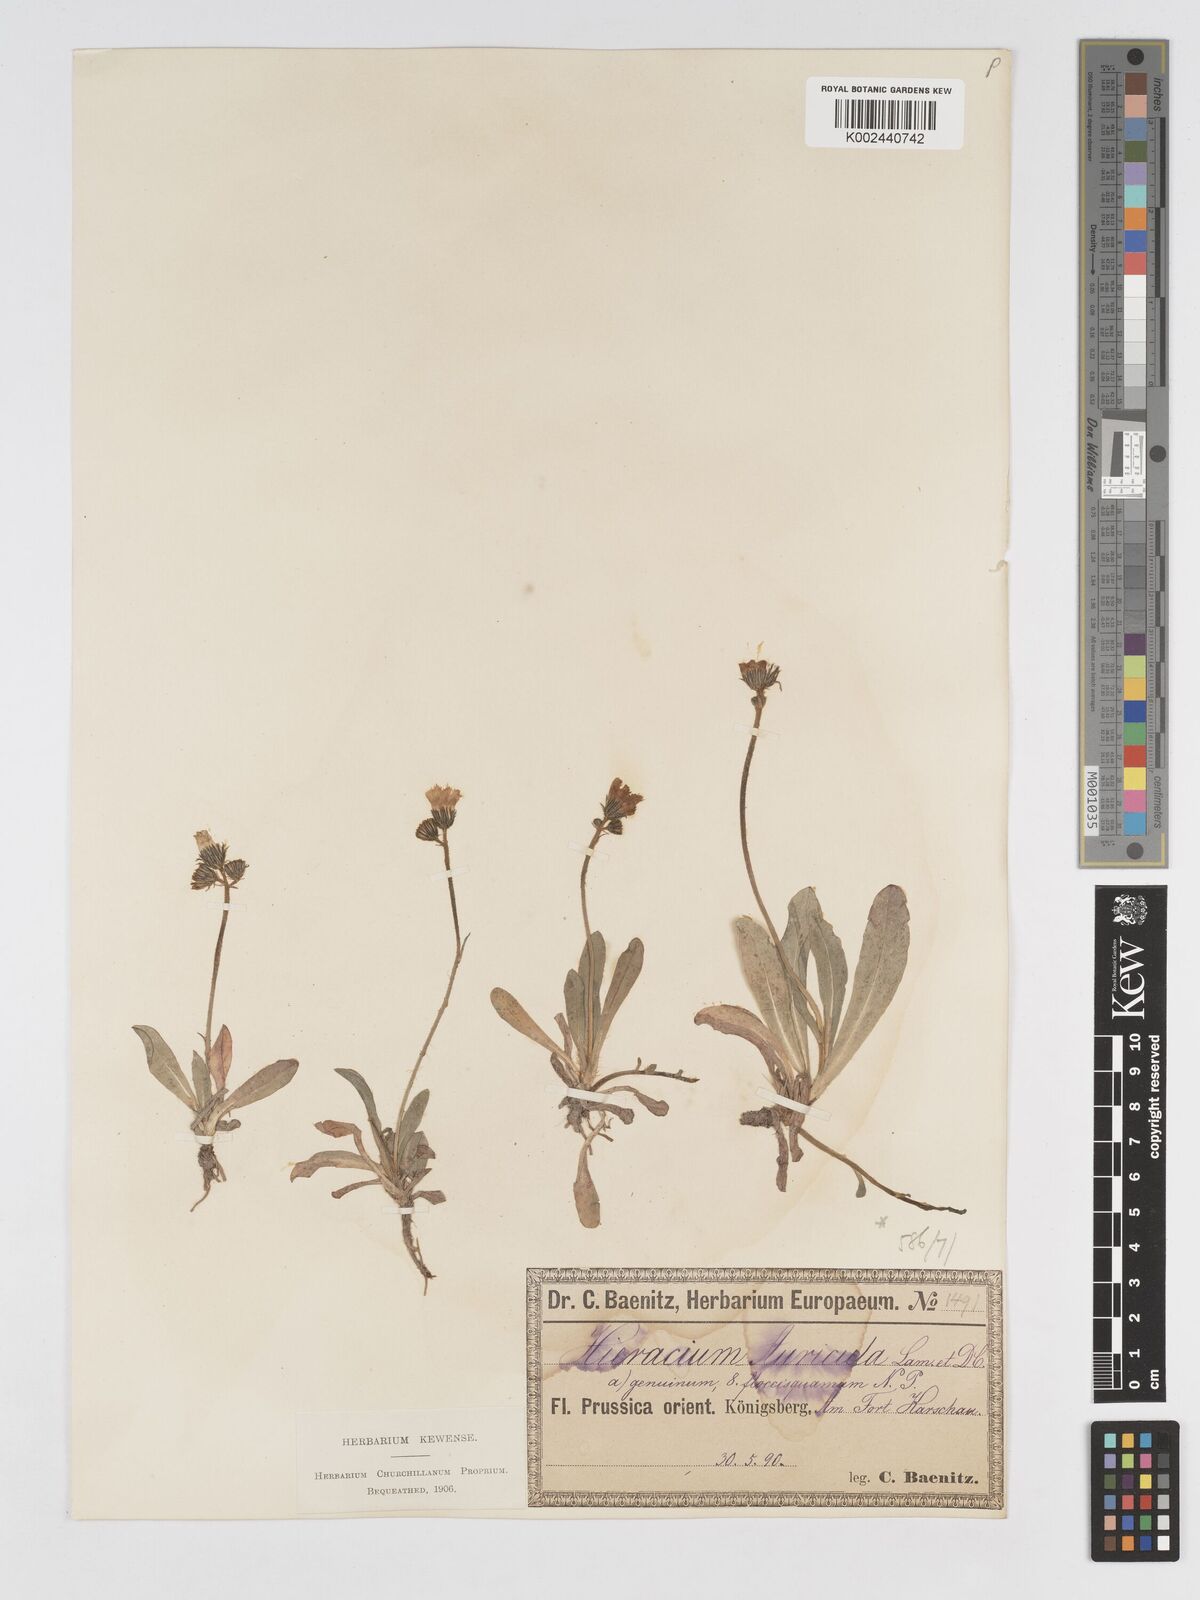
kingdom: Plantae
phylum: Tracheophyta
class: Magnoliopsida
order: Asterales
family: Asteraceae
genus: Pilosella
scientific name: Pilosella floribunda
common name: Glaucous hawkweed
